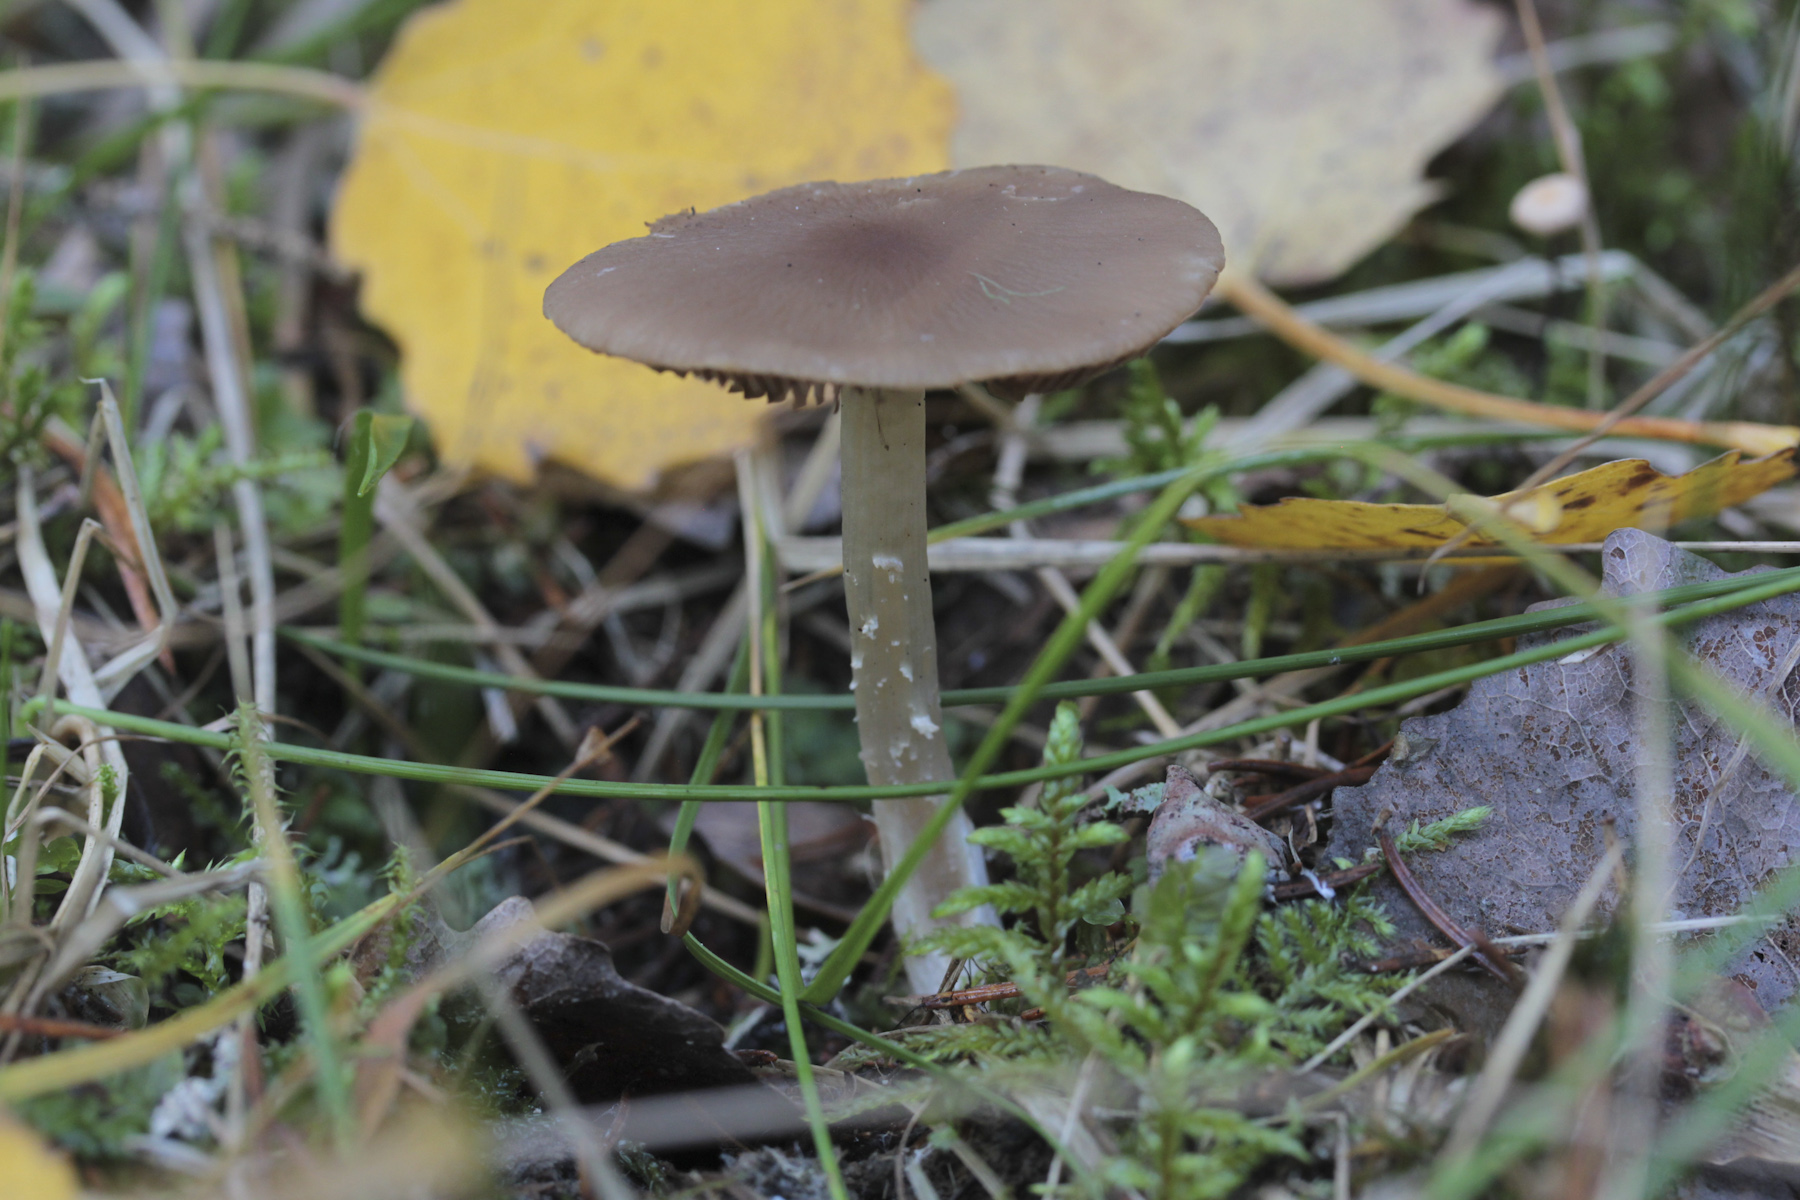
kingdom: Fungi
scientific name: Fungi
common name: Fungi
